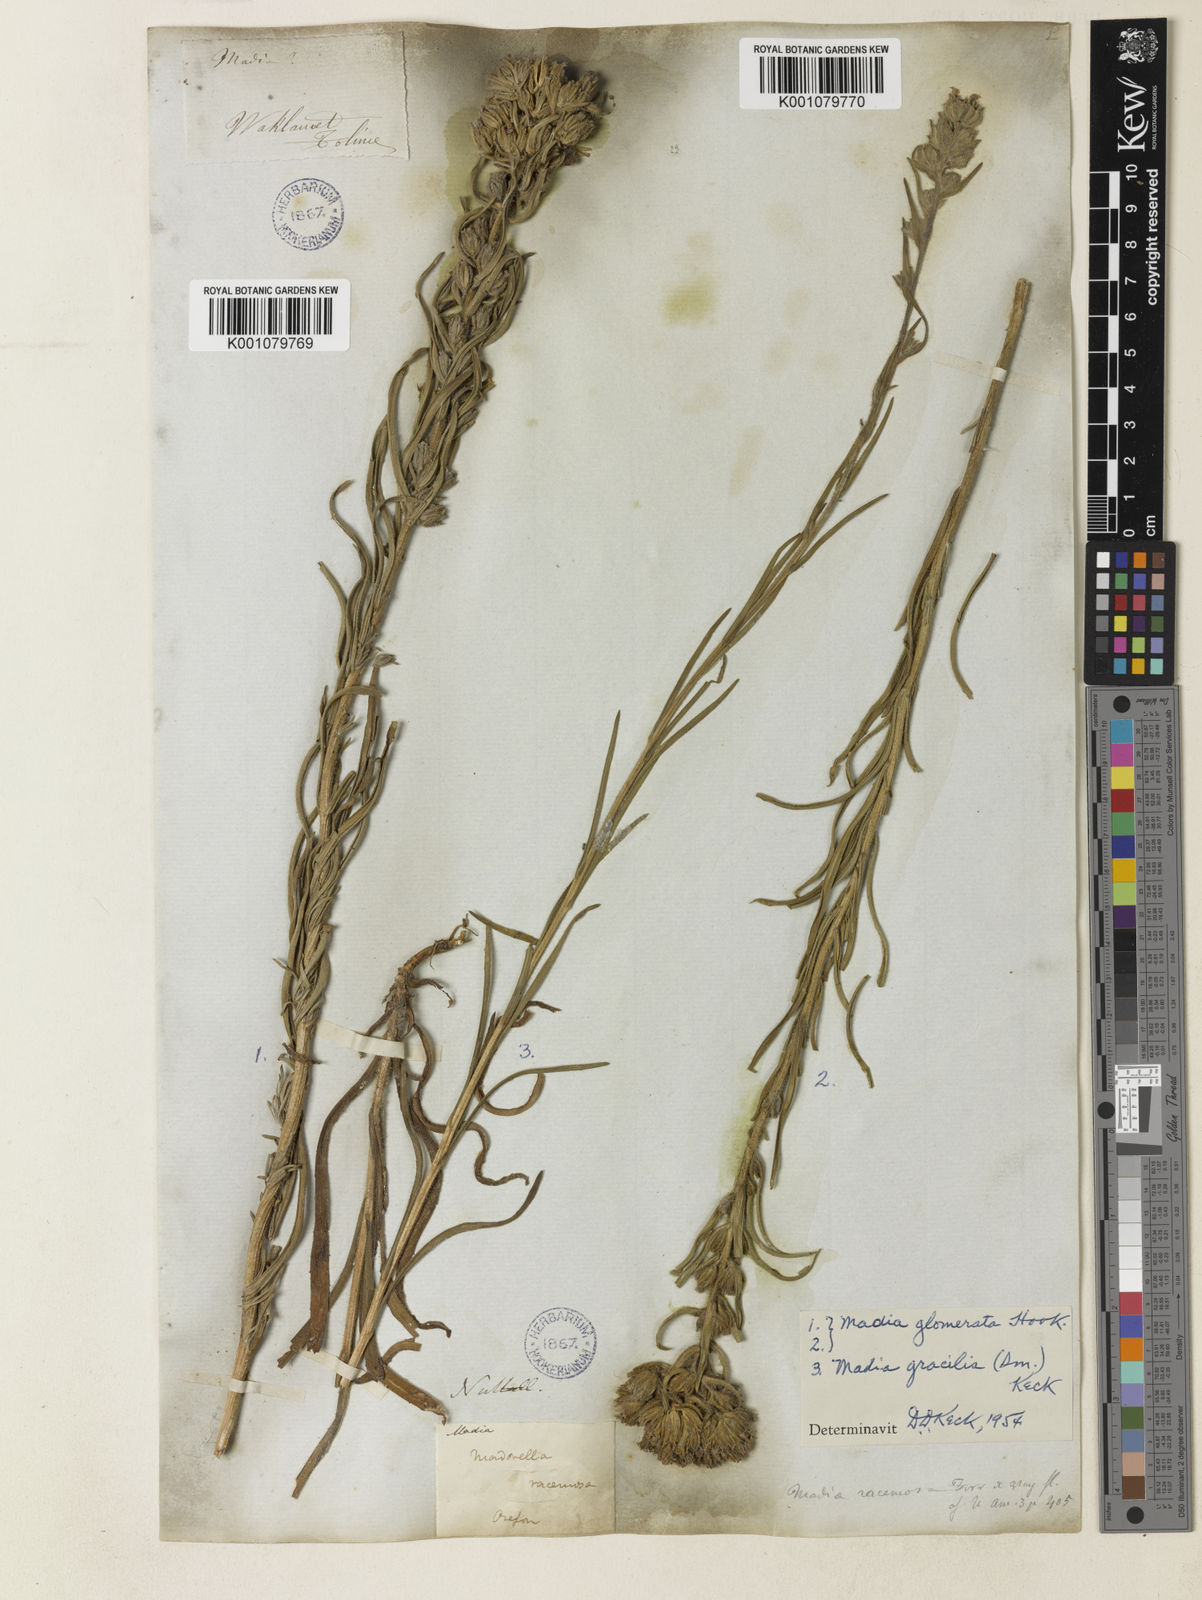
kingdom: Plantae
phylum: Tracheophyta
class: Magnoliopsida
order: Asterales
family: Asteraceae
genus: Madia
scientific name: Madia
